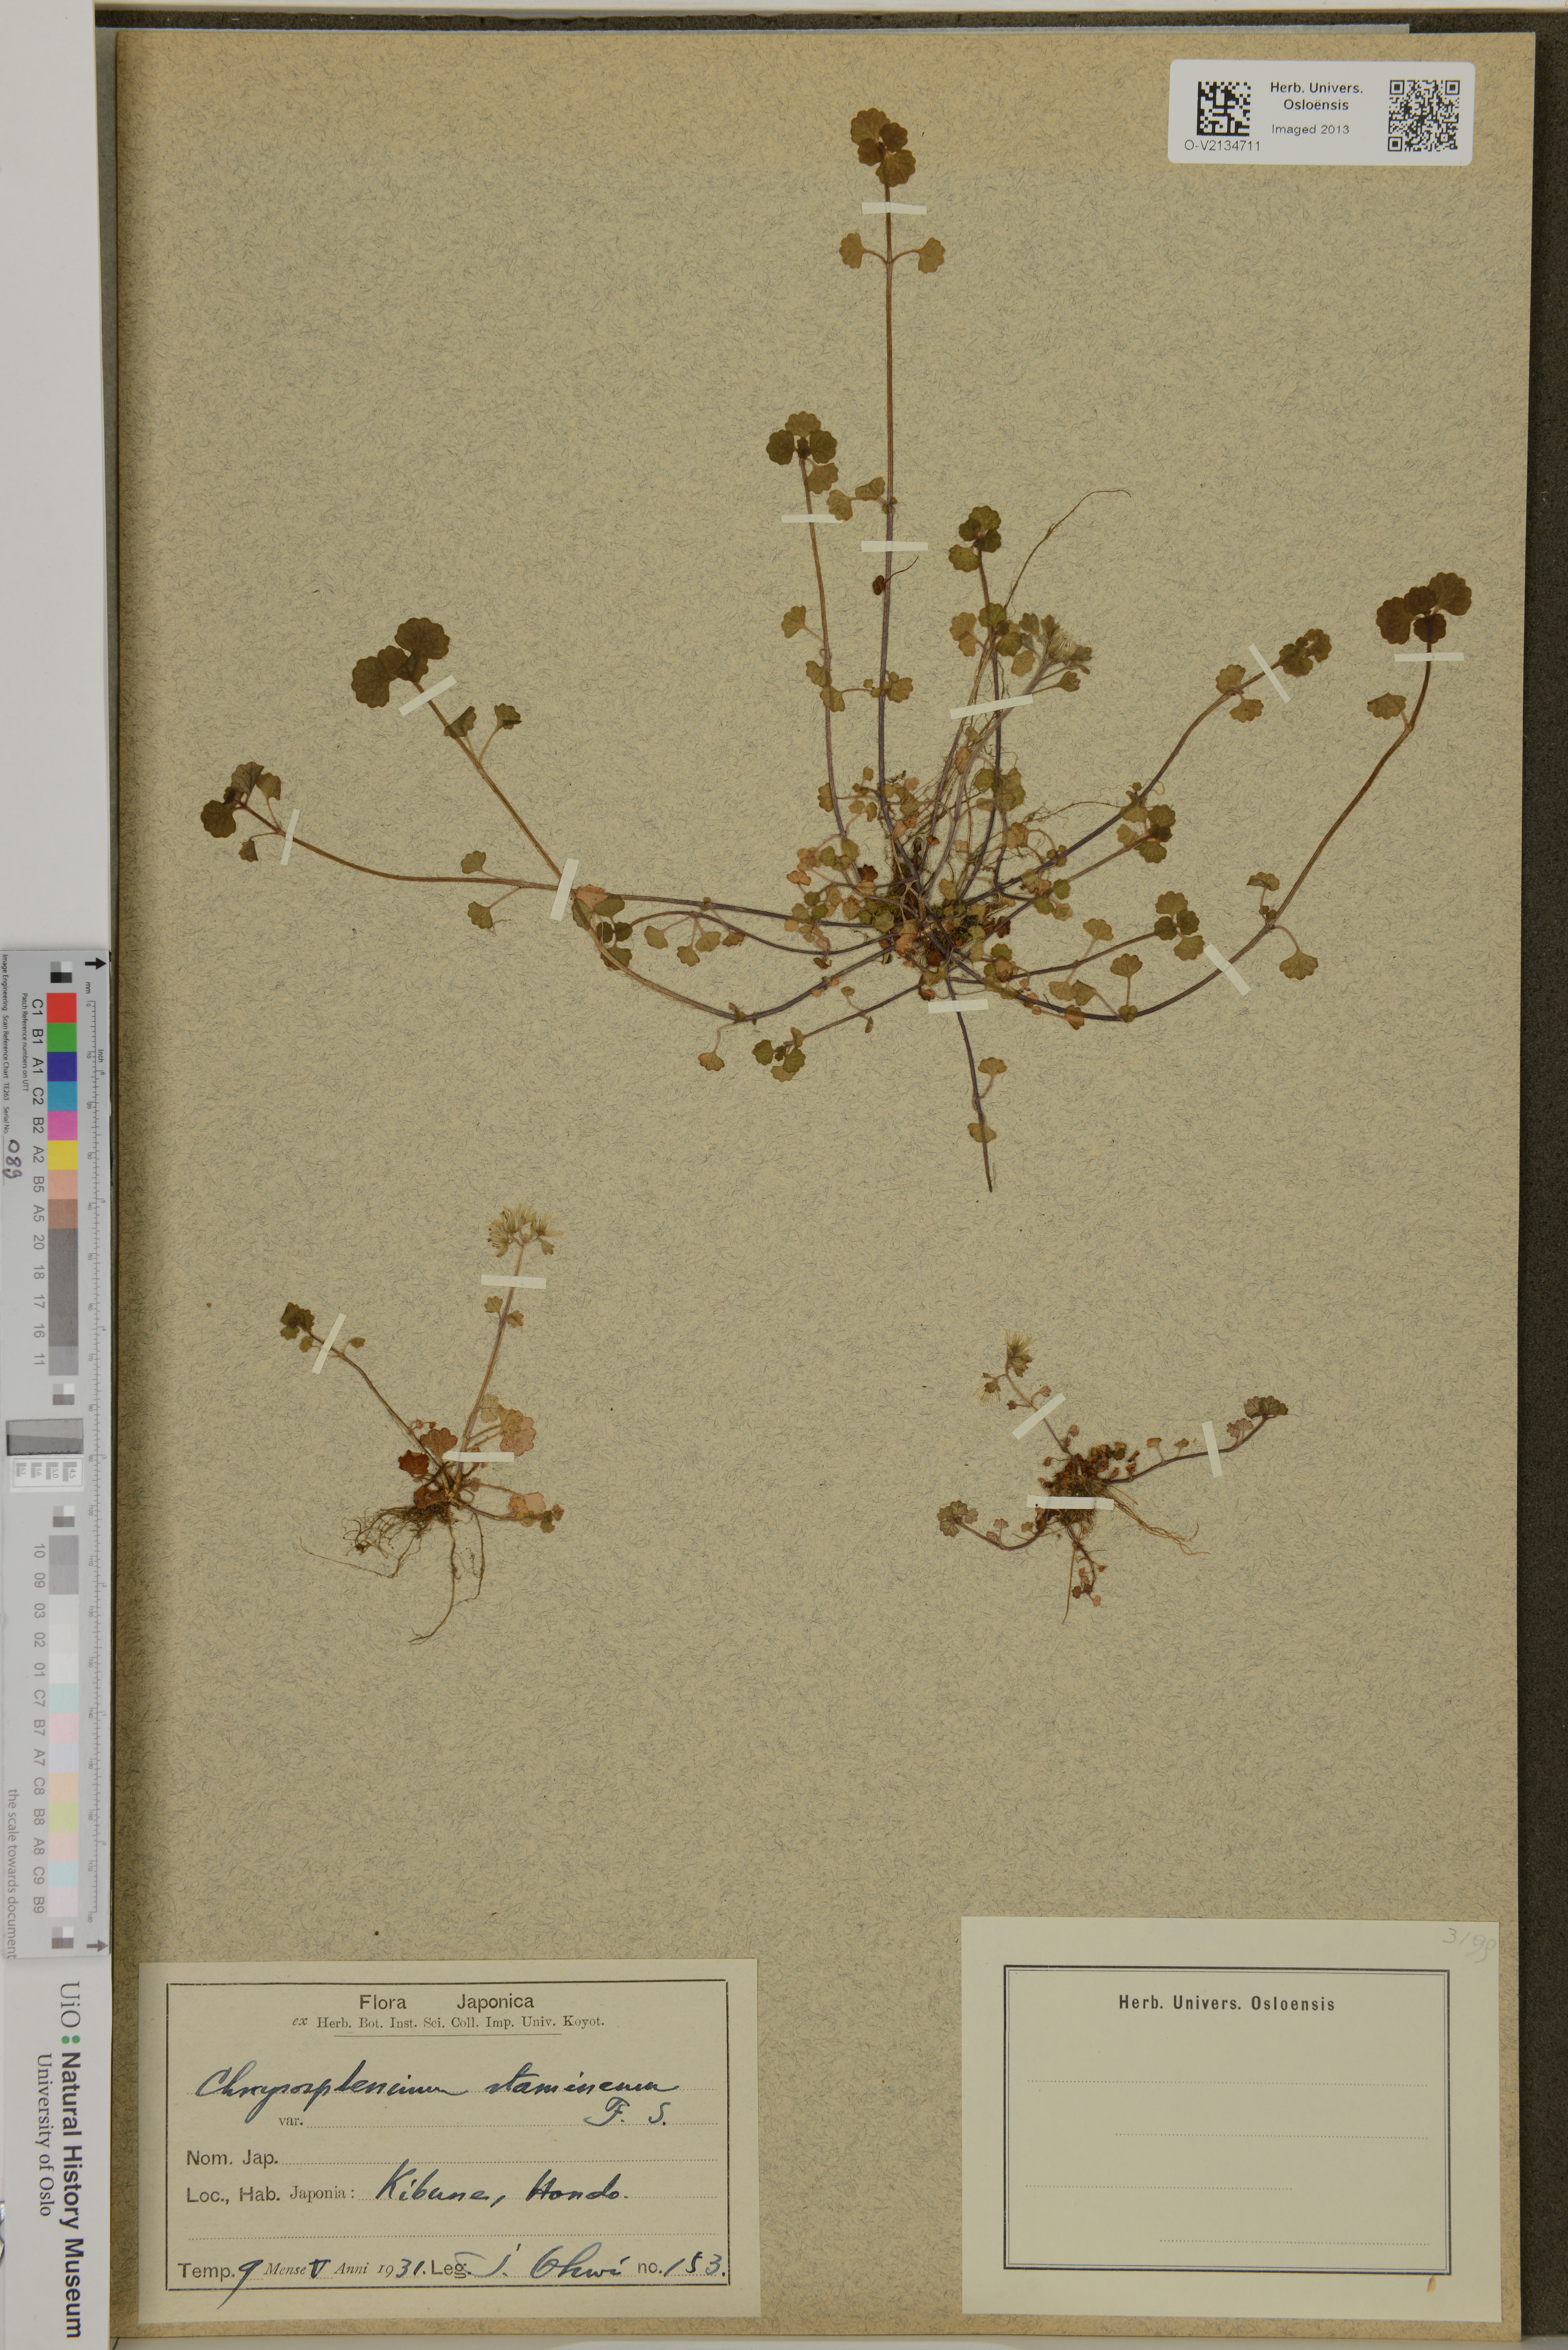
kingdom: Plantae
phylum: Tracheophyta
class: Magnoliopsida
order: Saxifragales
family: Saxifragaceae
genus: Chrysosplenium
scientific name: Chrysosplenium album
